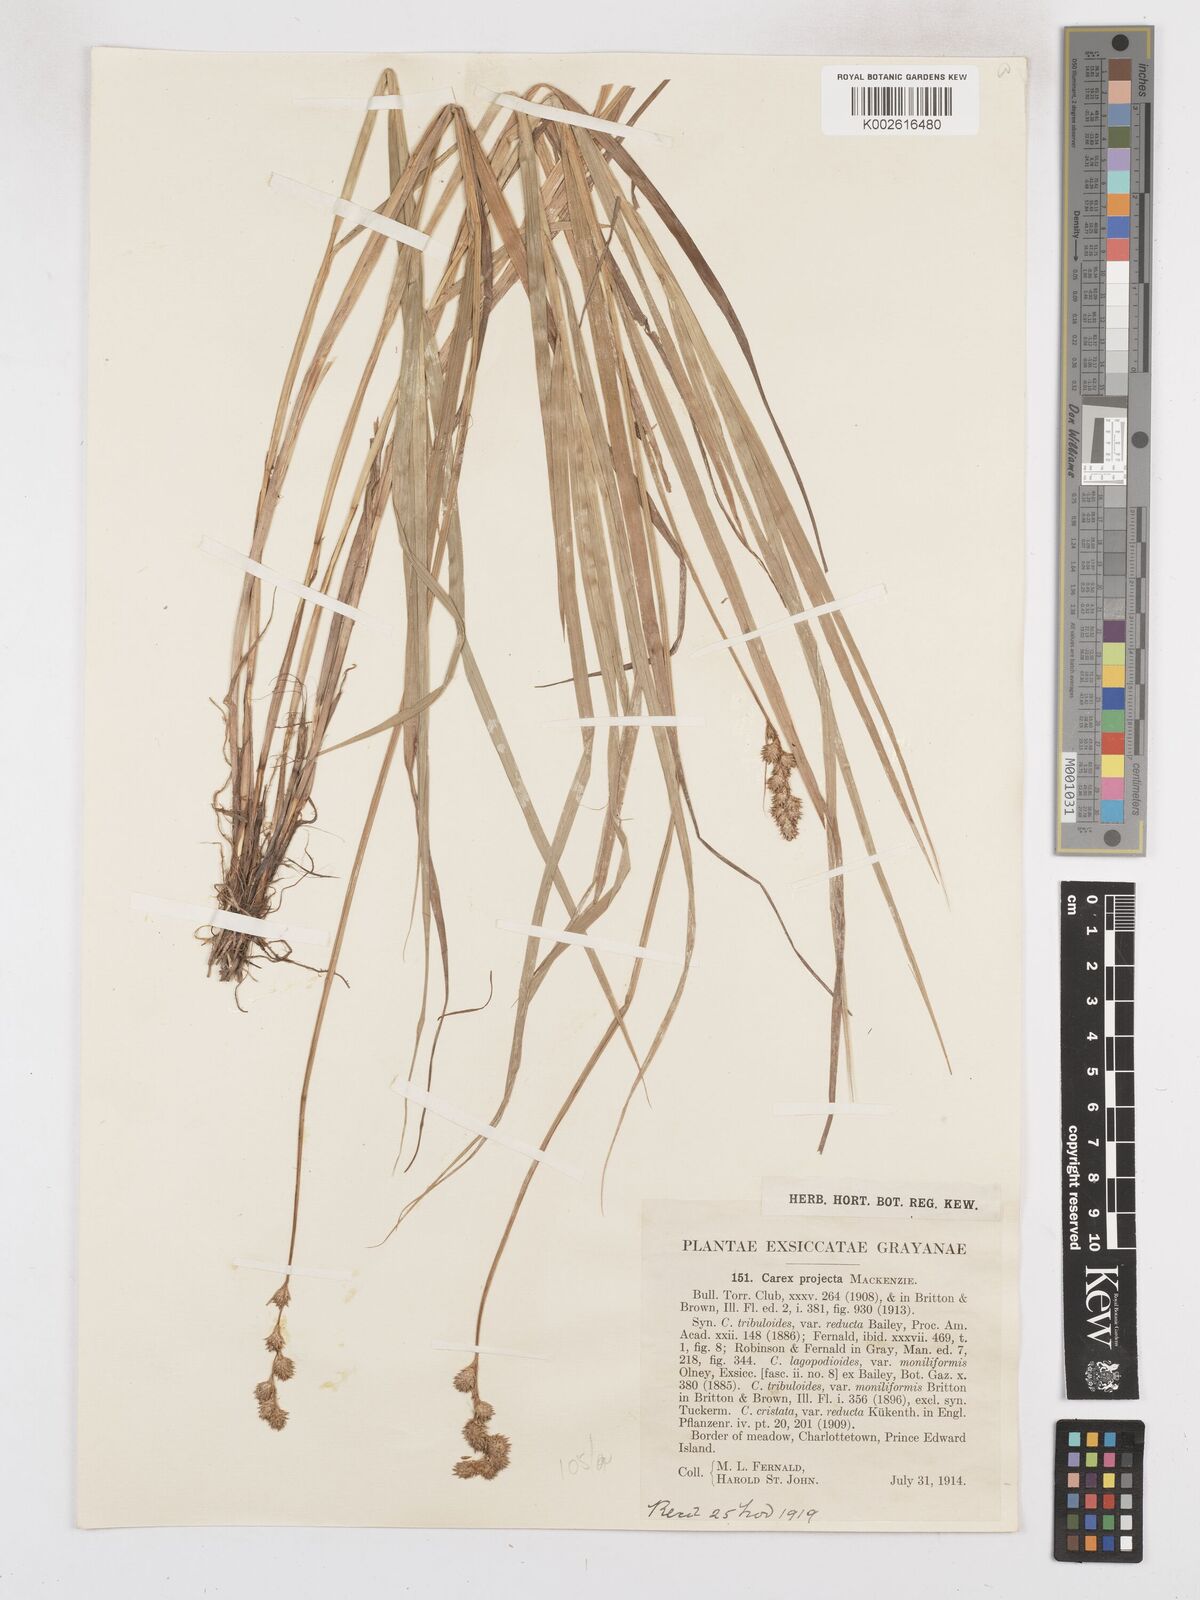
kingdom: Plantae
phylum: Tracheophyta
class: Liliopsida
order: Poales
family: Cyperaceae
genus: Carex
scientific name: Carex projecta
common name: Loose-headed oval sedge
